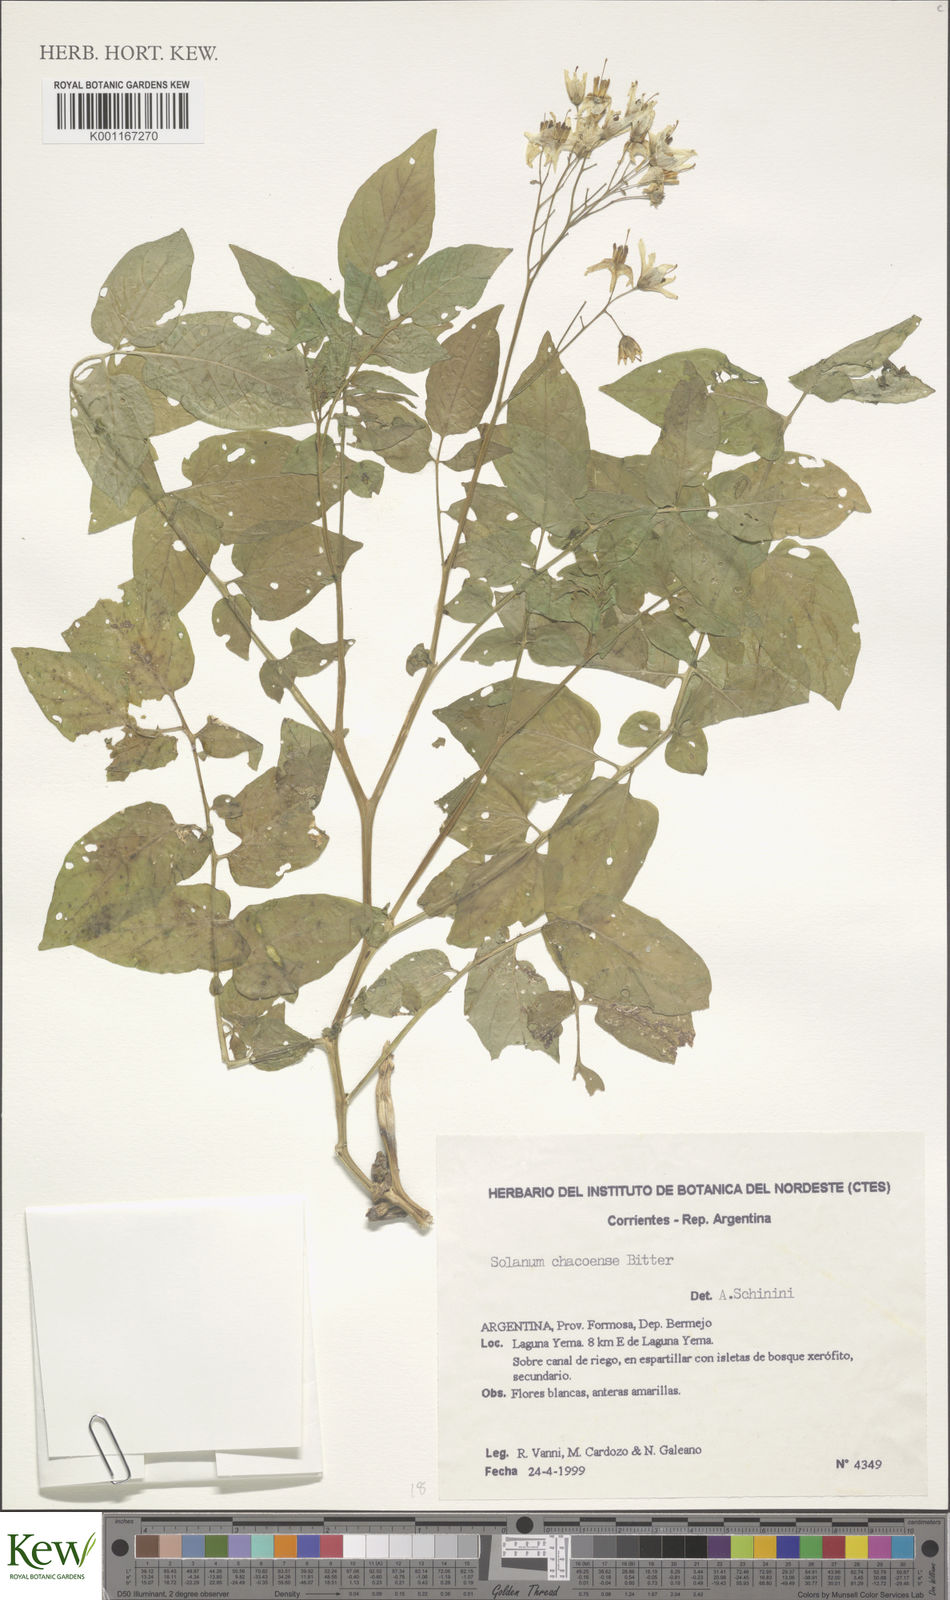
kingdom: Plantae
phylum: Tracheophyta
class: Magnoliopsida
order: Solanales
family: Solanaceae
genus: Solanum
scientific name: Solanum chacoense
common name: Chaco potato
